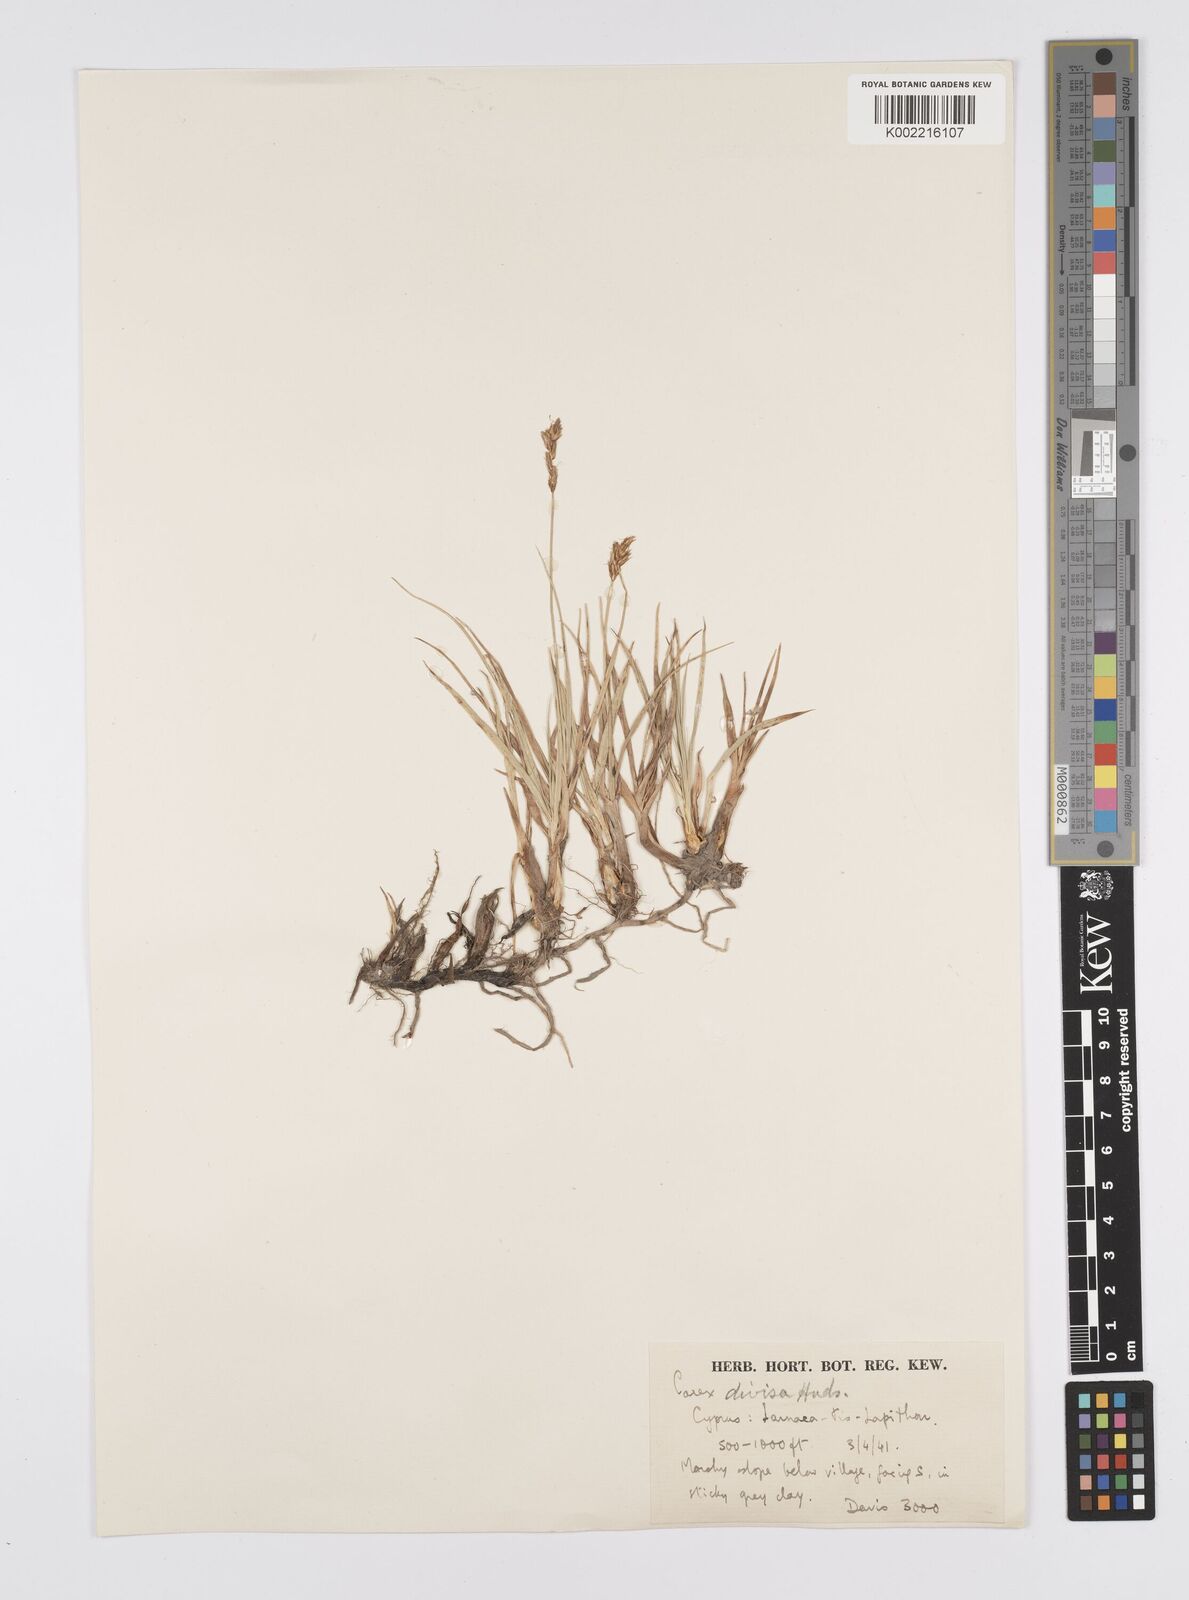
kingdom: Plantae
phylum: Tracheophyta
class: Liliopsida
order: Poales
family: Cyperaceae
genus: Carex
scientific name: Carex divisa
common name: Divided sedge
